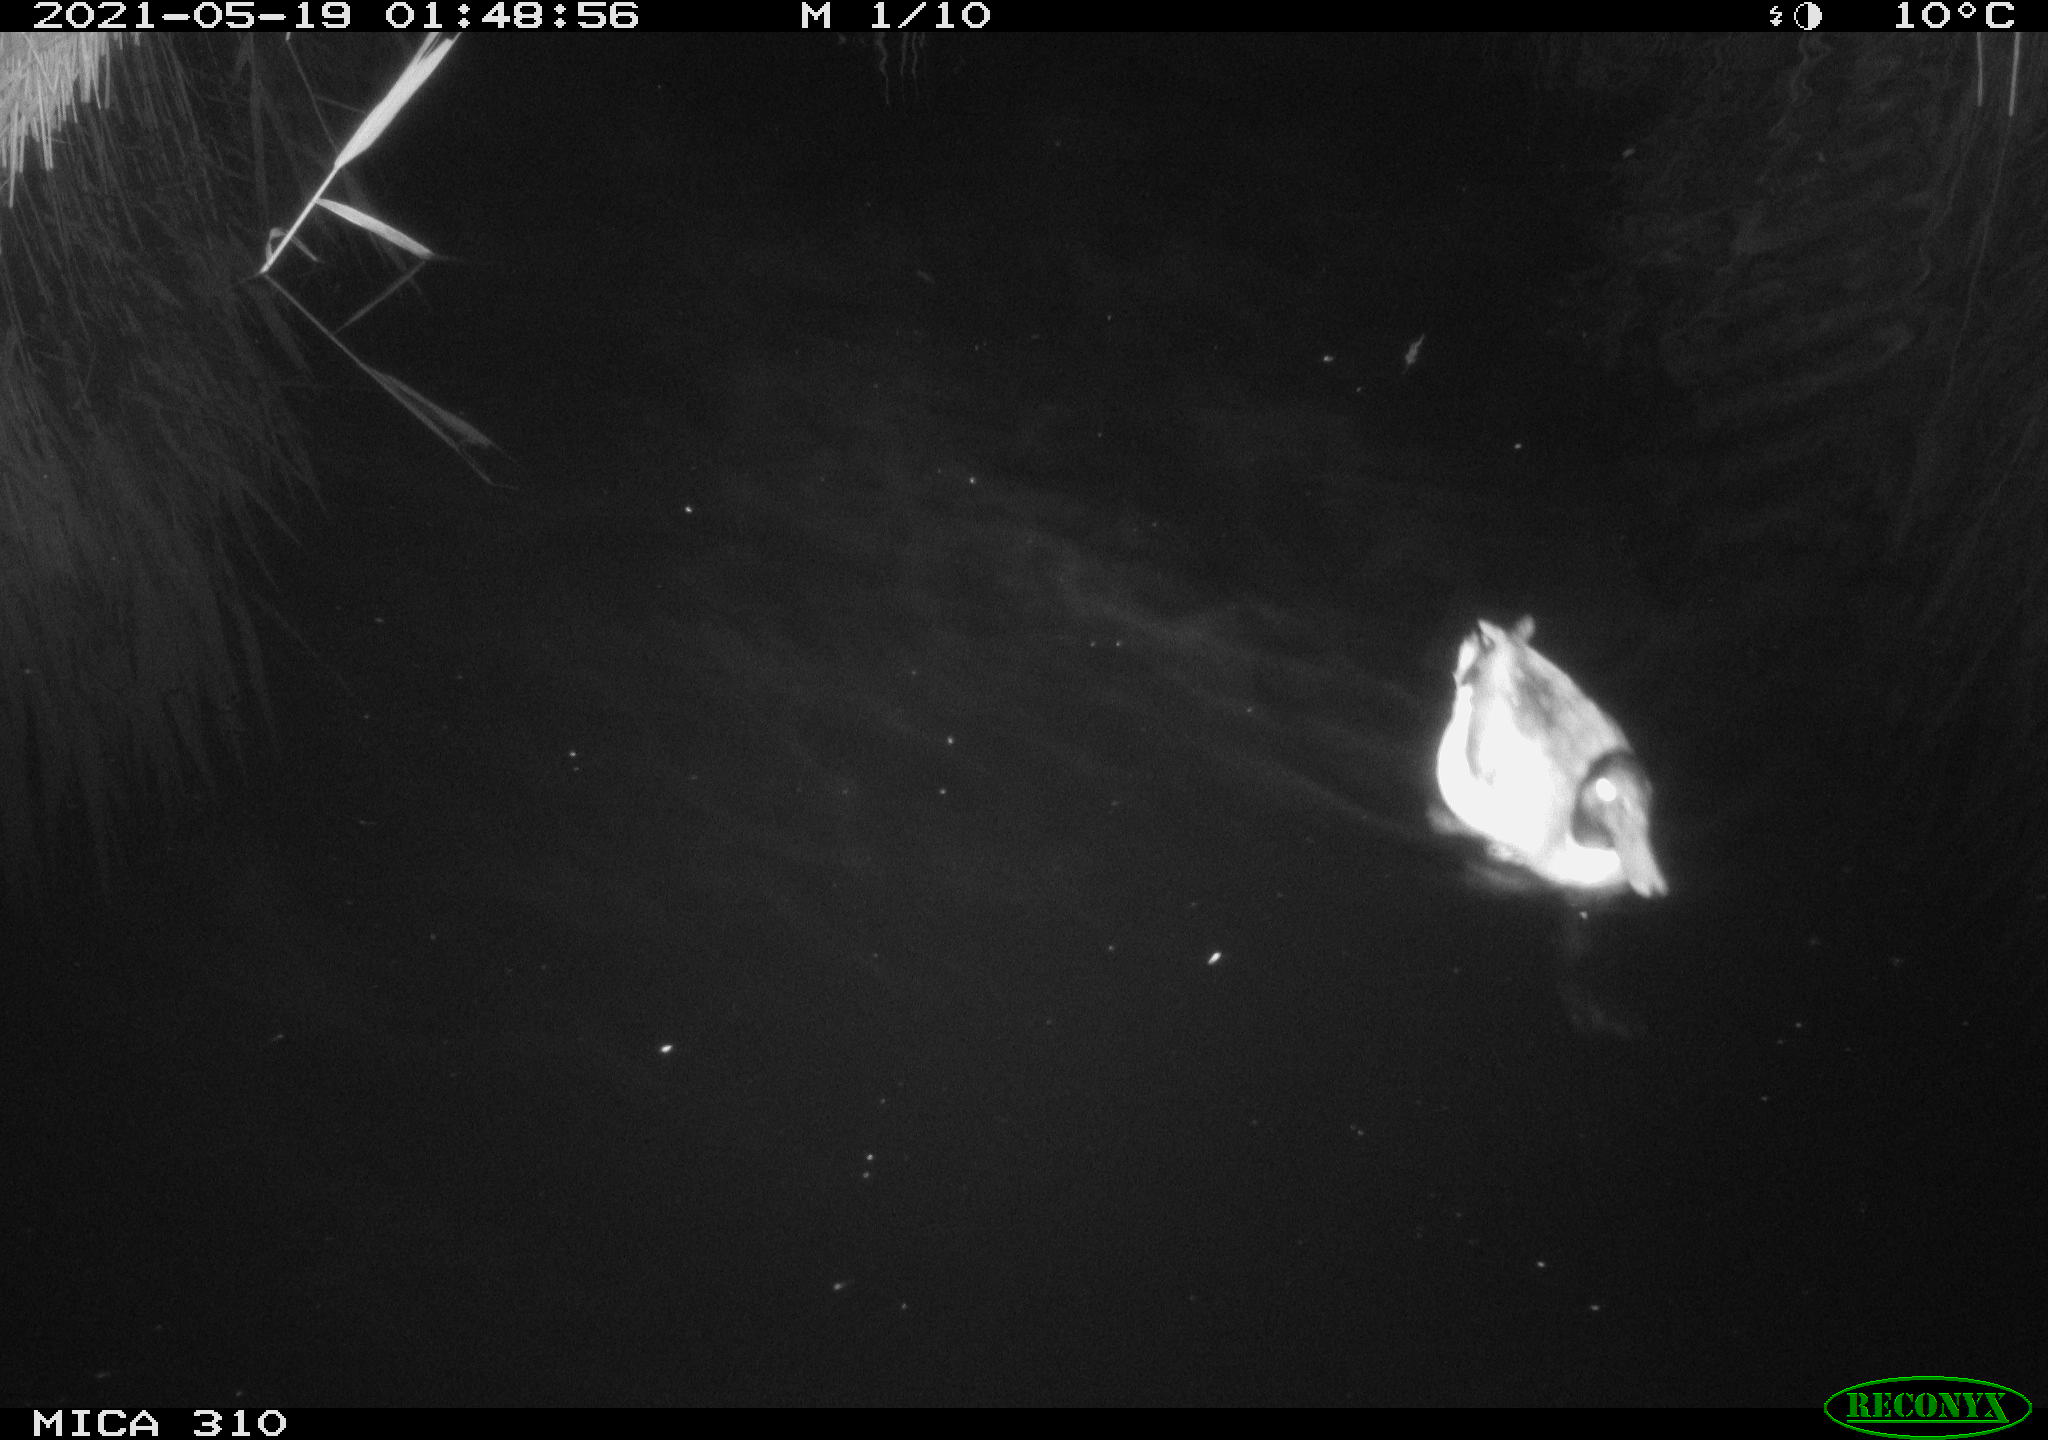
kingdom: Animalia
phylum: Chordata
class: Aves
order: Anseriformes
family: Anatidae
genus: Anas
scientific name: Anas platyrhynchos
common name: Mallard
